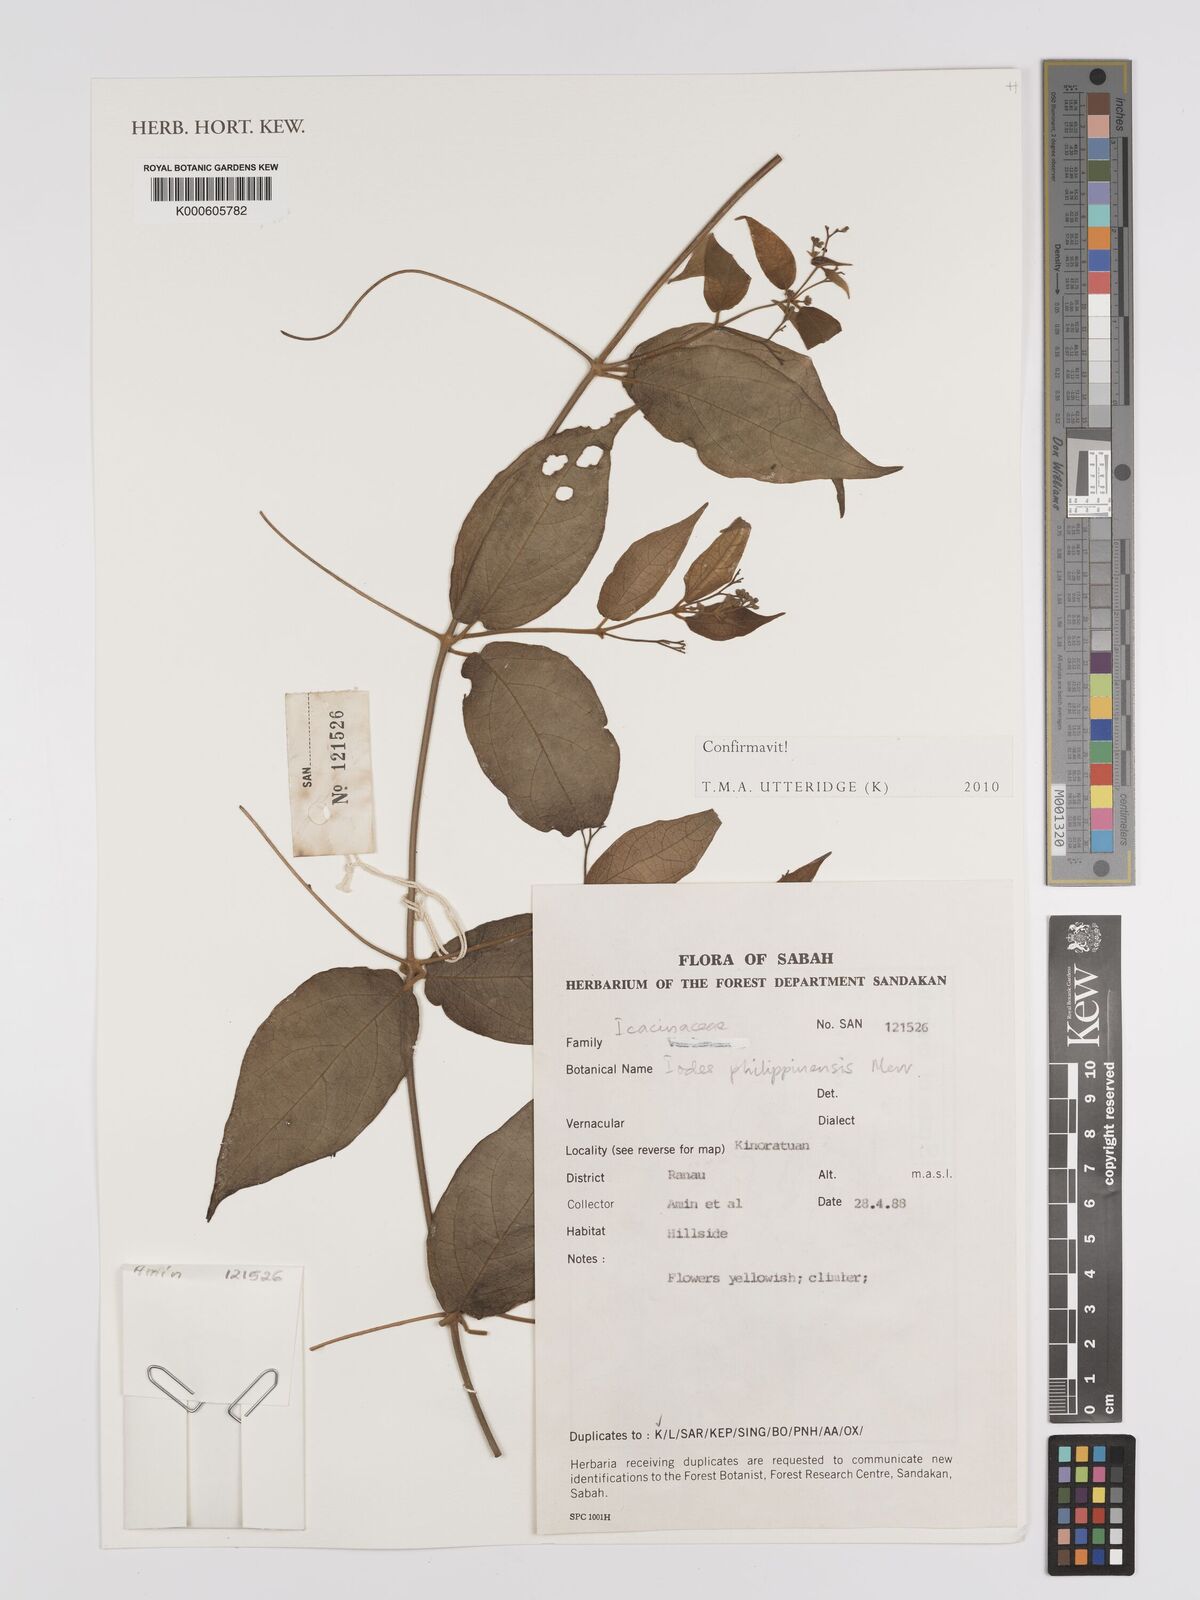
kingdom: Plantae
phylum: Tracheophyta
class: Magnoliopsida
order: Icacinales
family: Icacinaceae
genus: Iodes
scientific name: Iodes philippinensis
